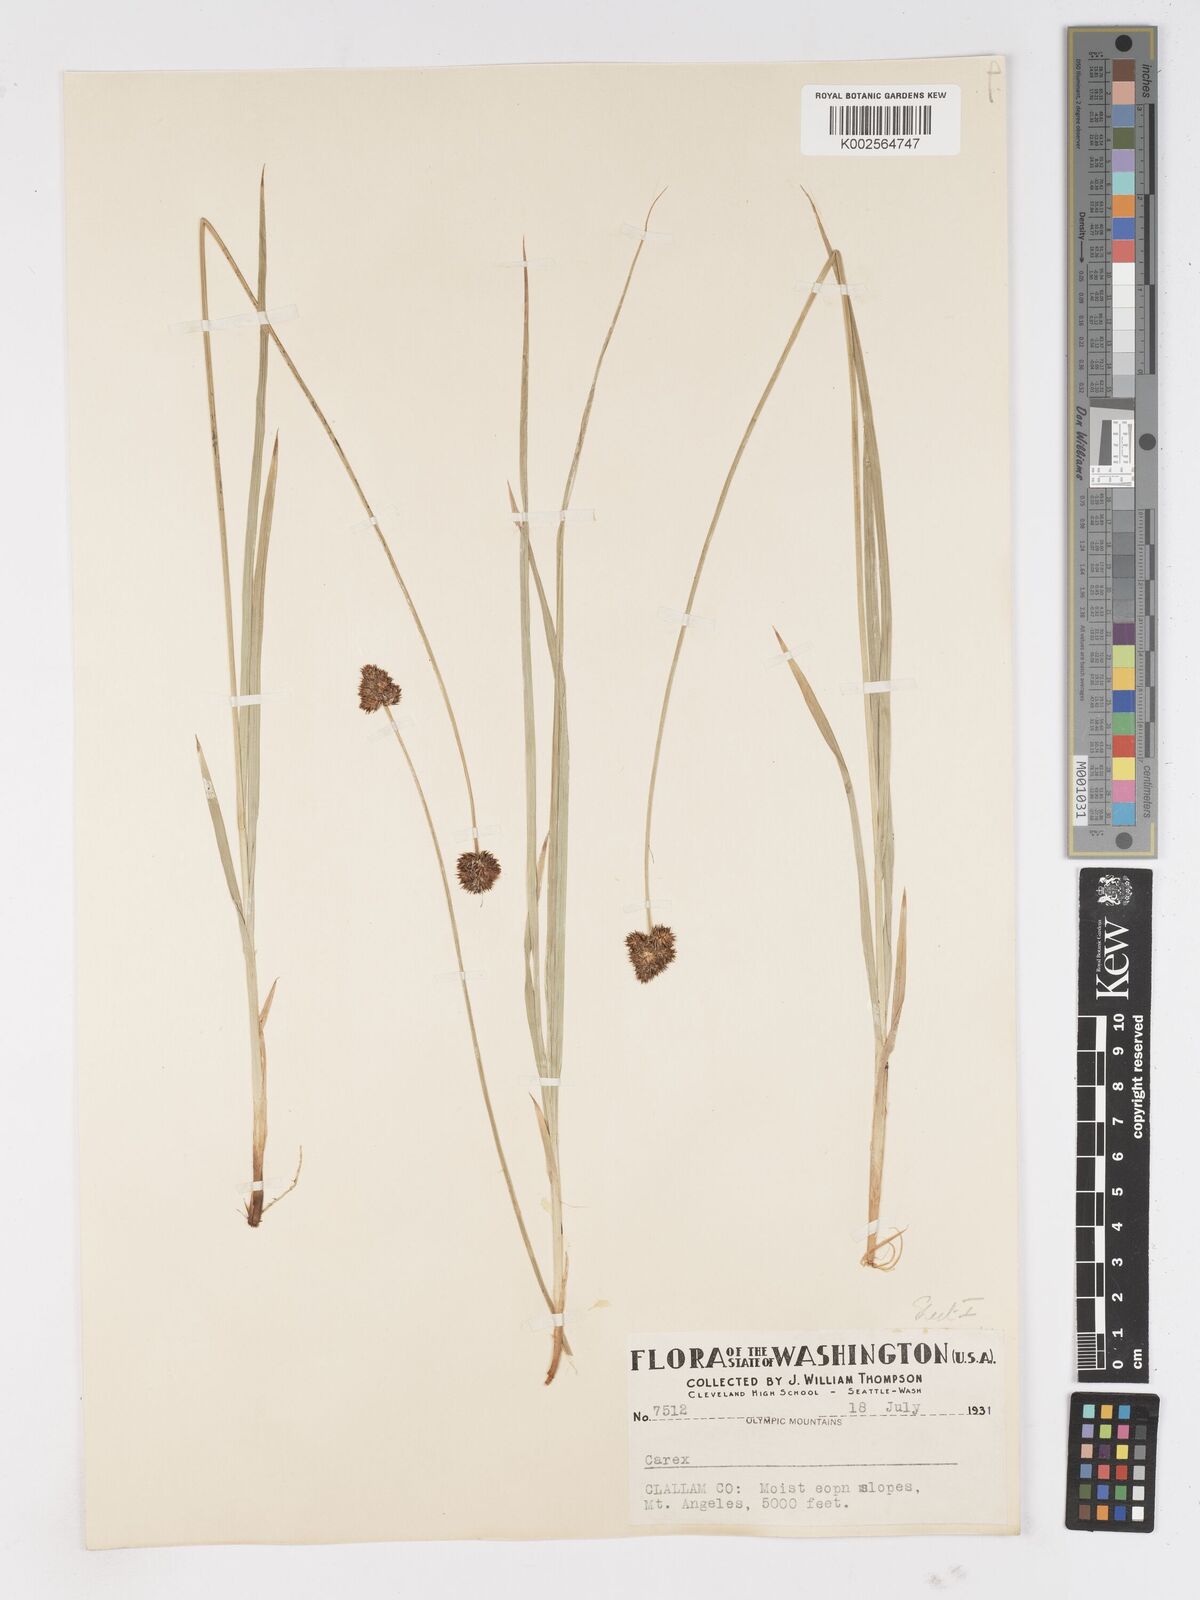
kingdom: Plantae
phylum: Tracheophyta
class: Liliopsida
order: Poales
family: Cyperaceae
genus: Carex
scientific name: Carex
